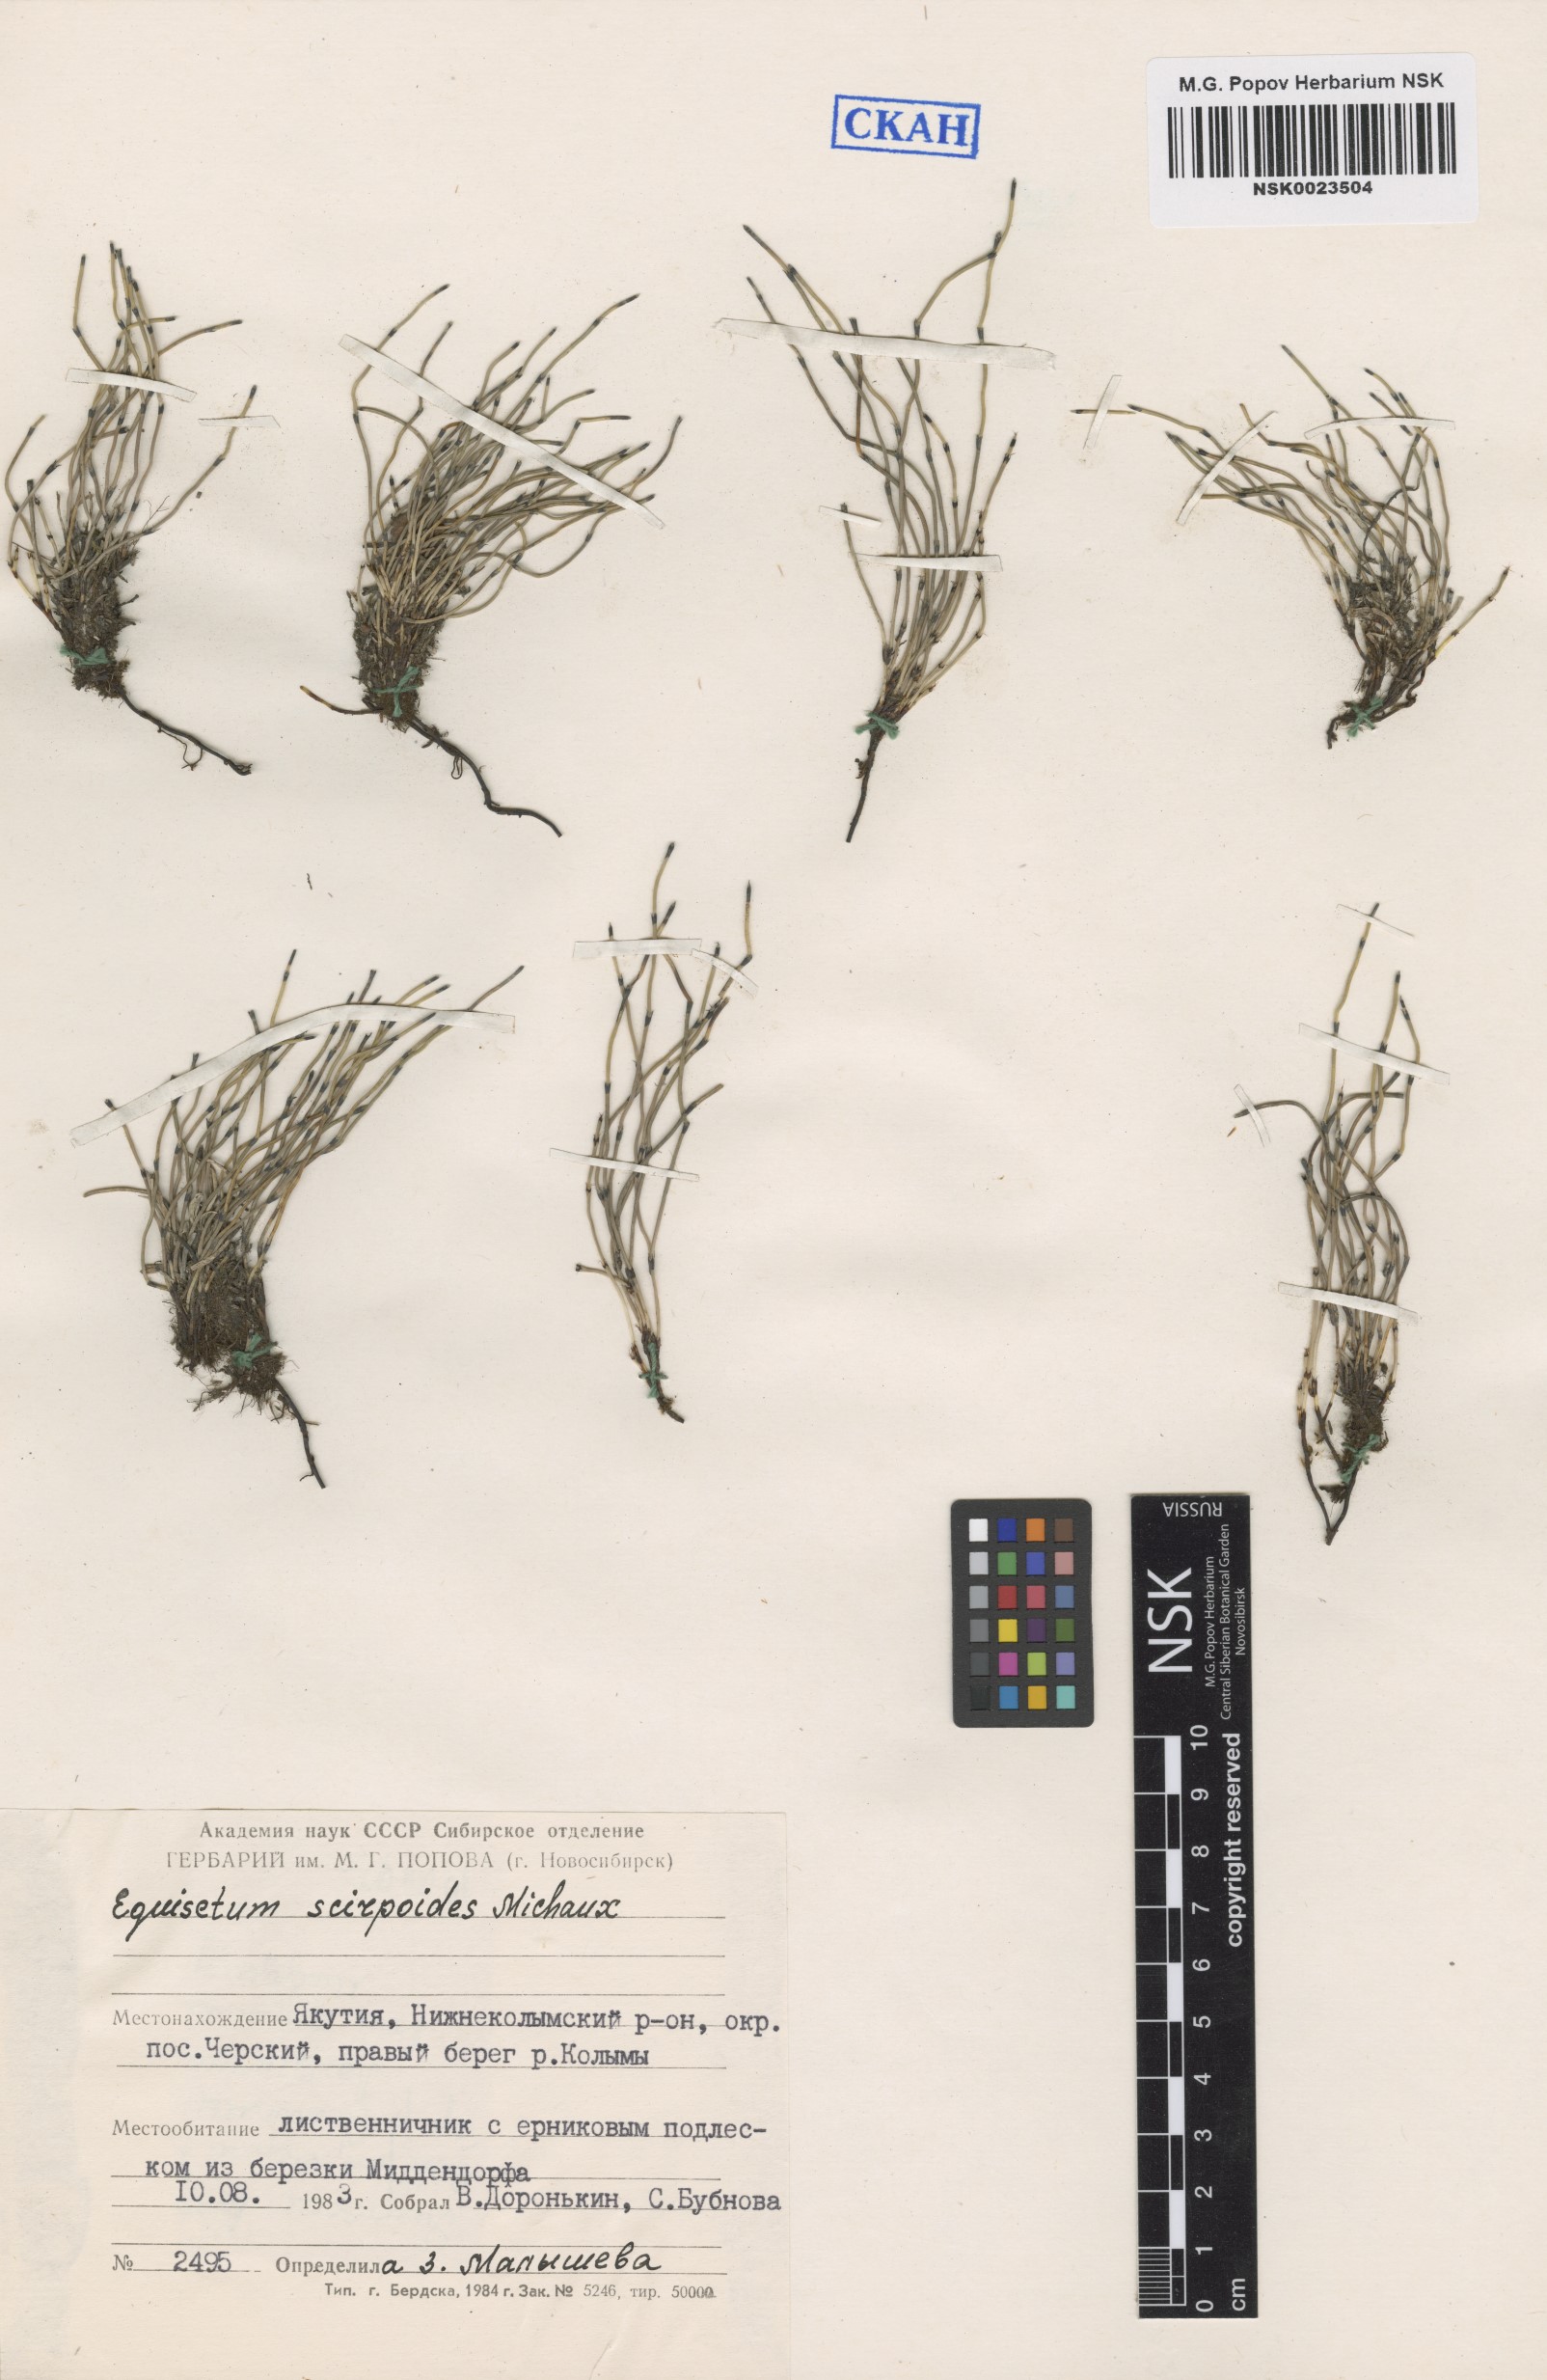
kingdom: Plantae
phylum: Tracheophyta
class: Polypodiopsida
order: Equisetales
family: Equisetaceae
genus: Equisetum
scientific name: Equisetum scirpoides
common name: Delicate horsetail
